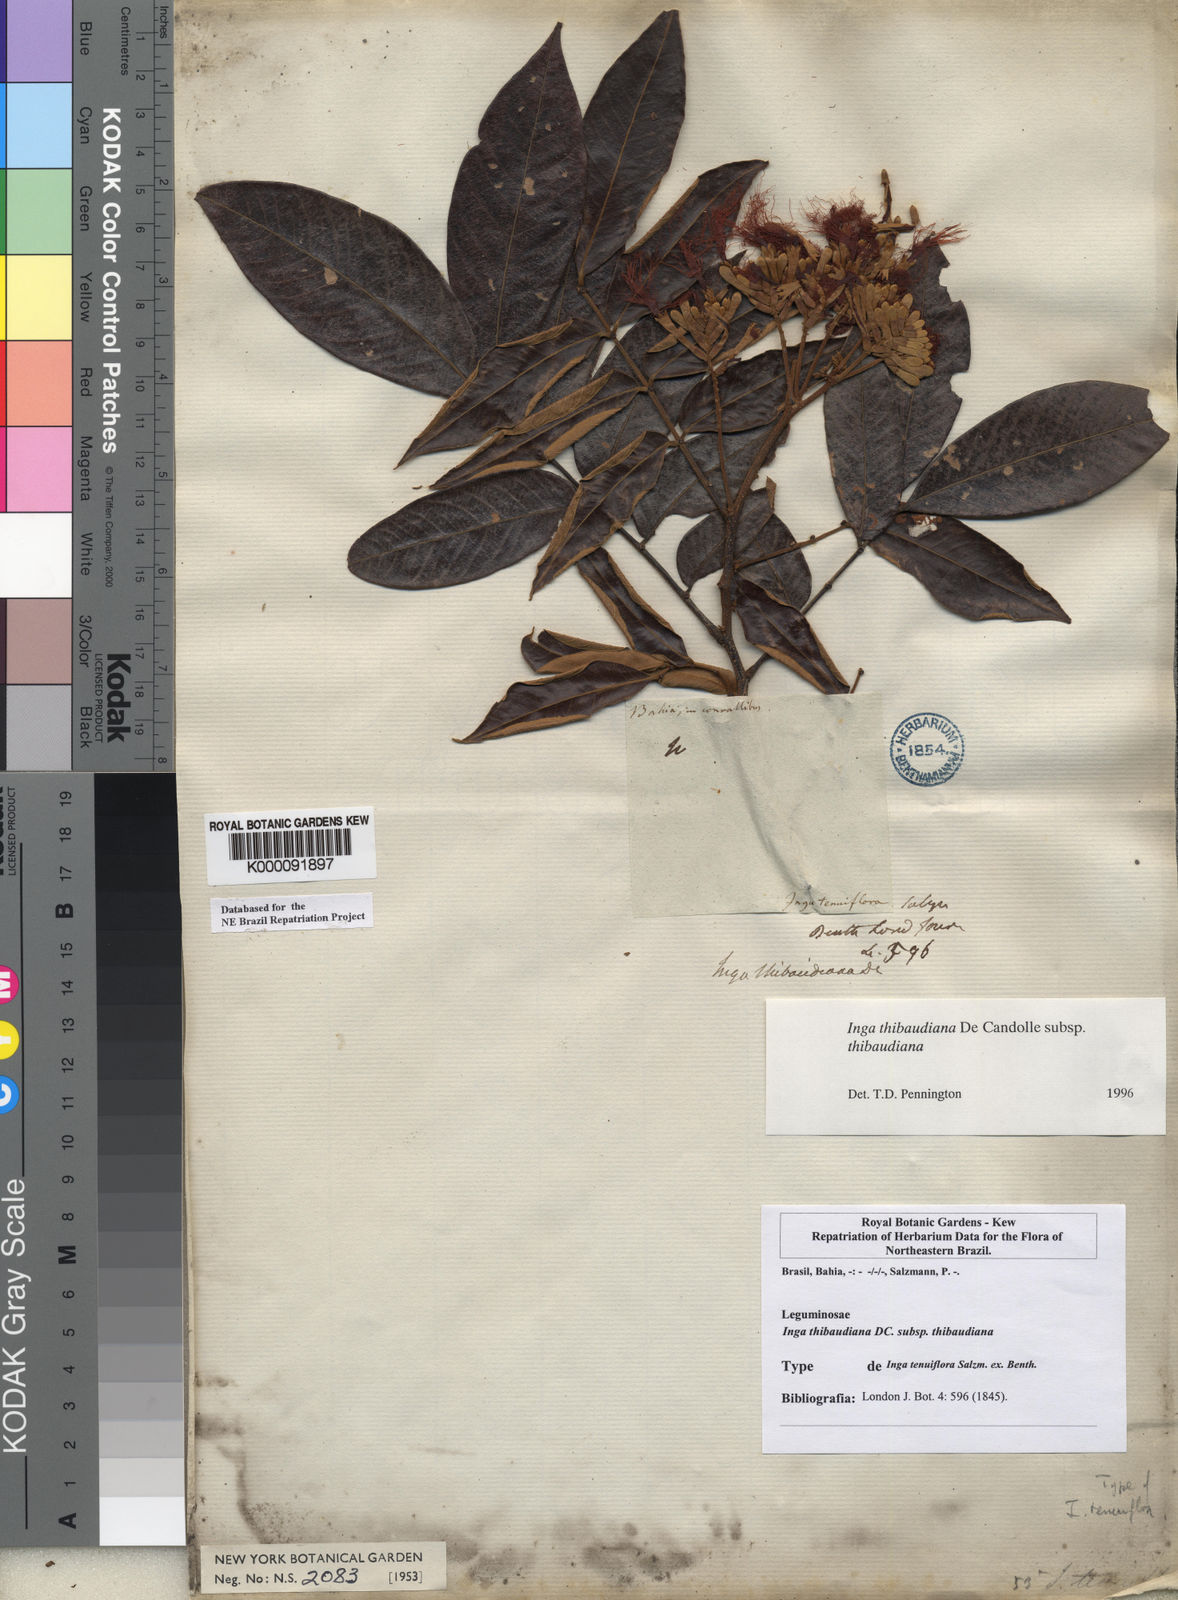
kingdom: Plantae
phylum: Tracheophyta
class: Magnoliopsida
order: Fabales
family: Fabaceae
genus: Inga
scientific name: Inga thibaudiana
